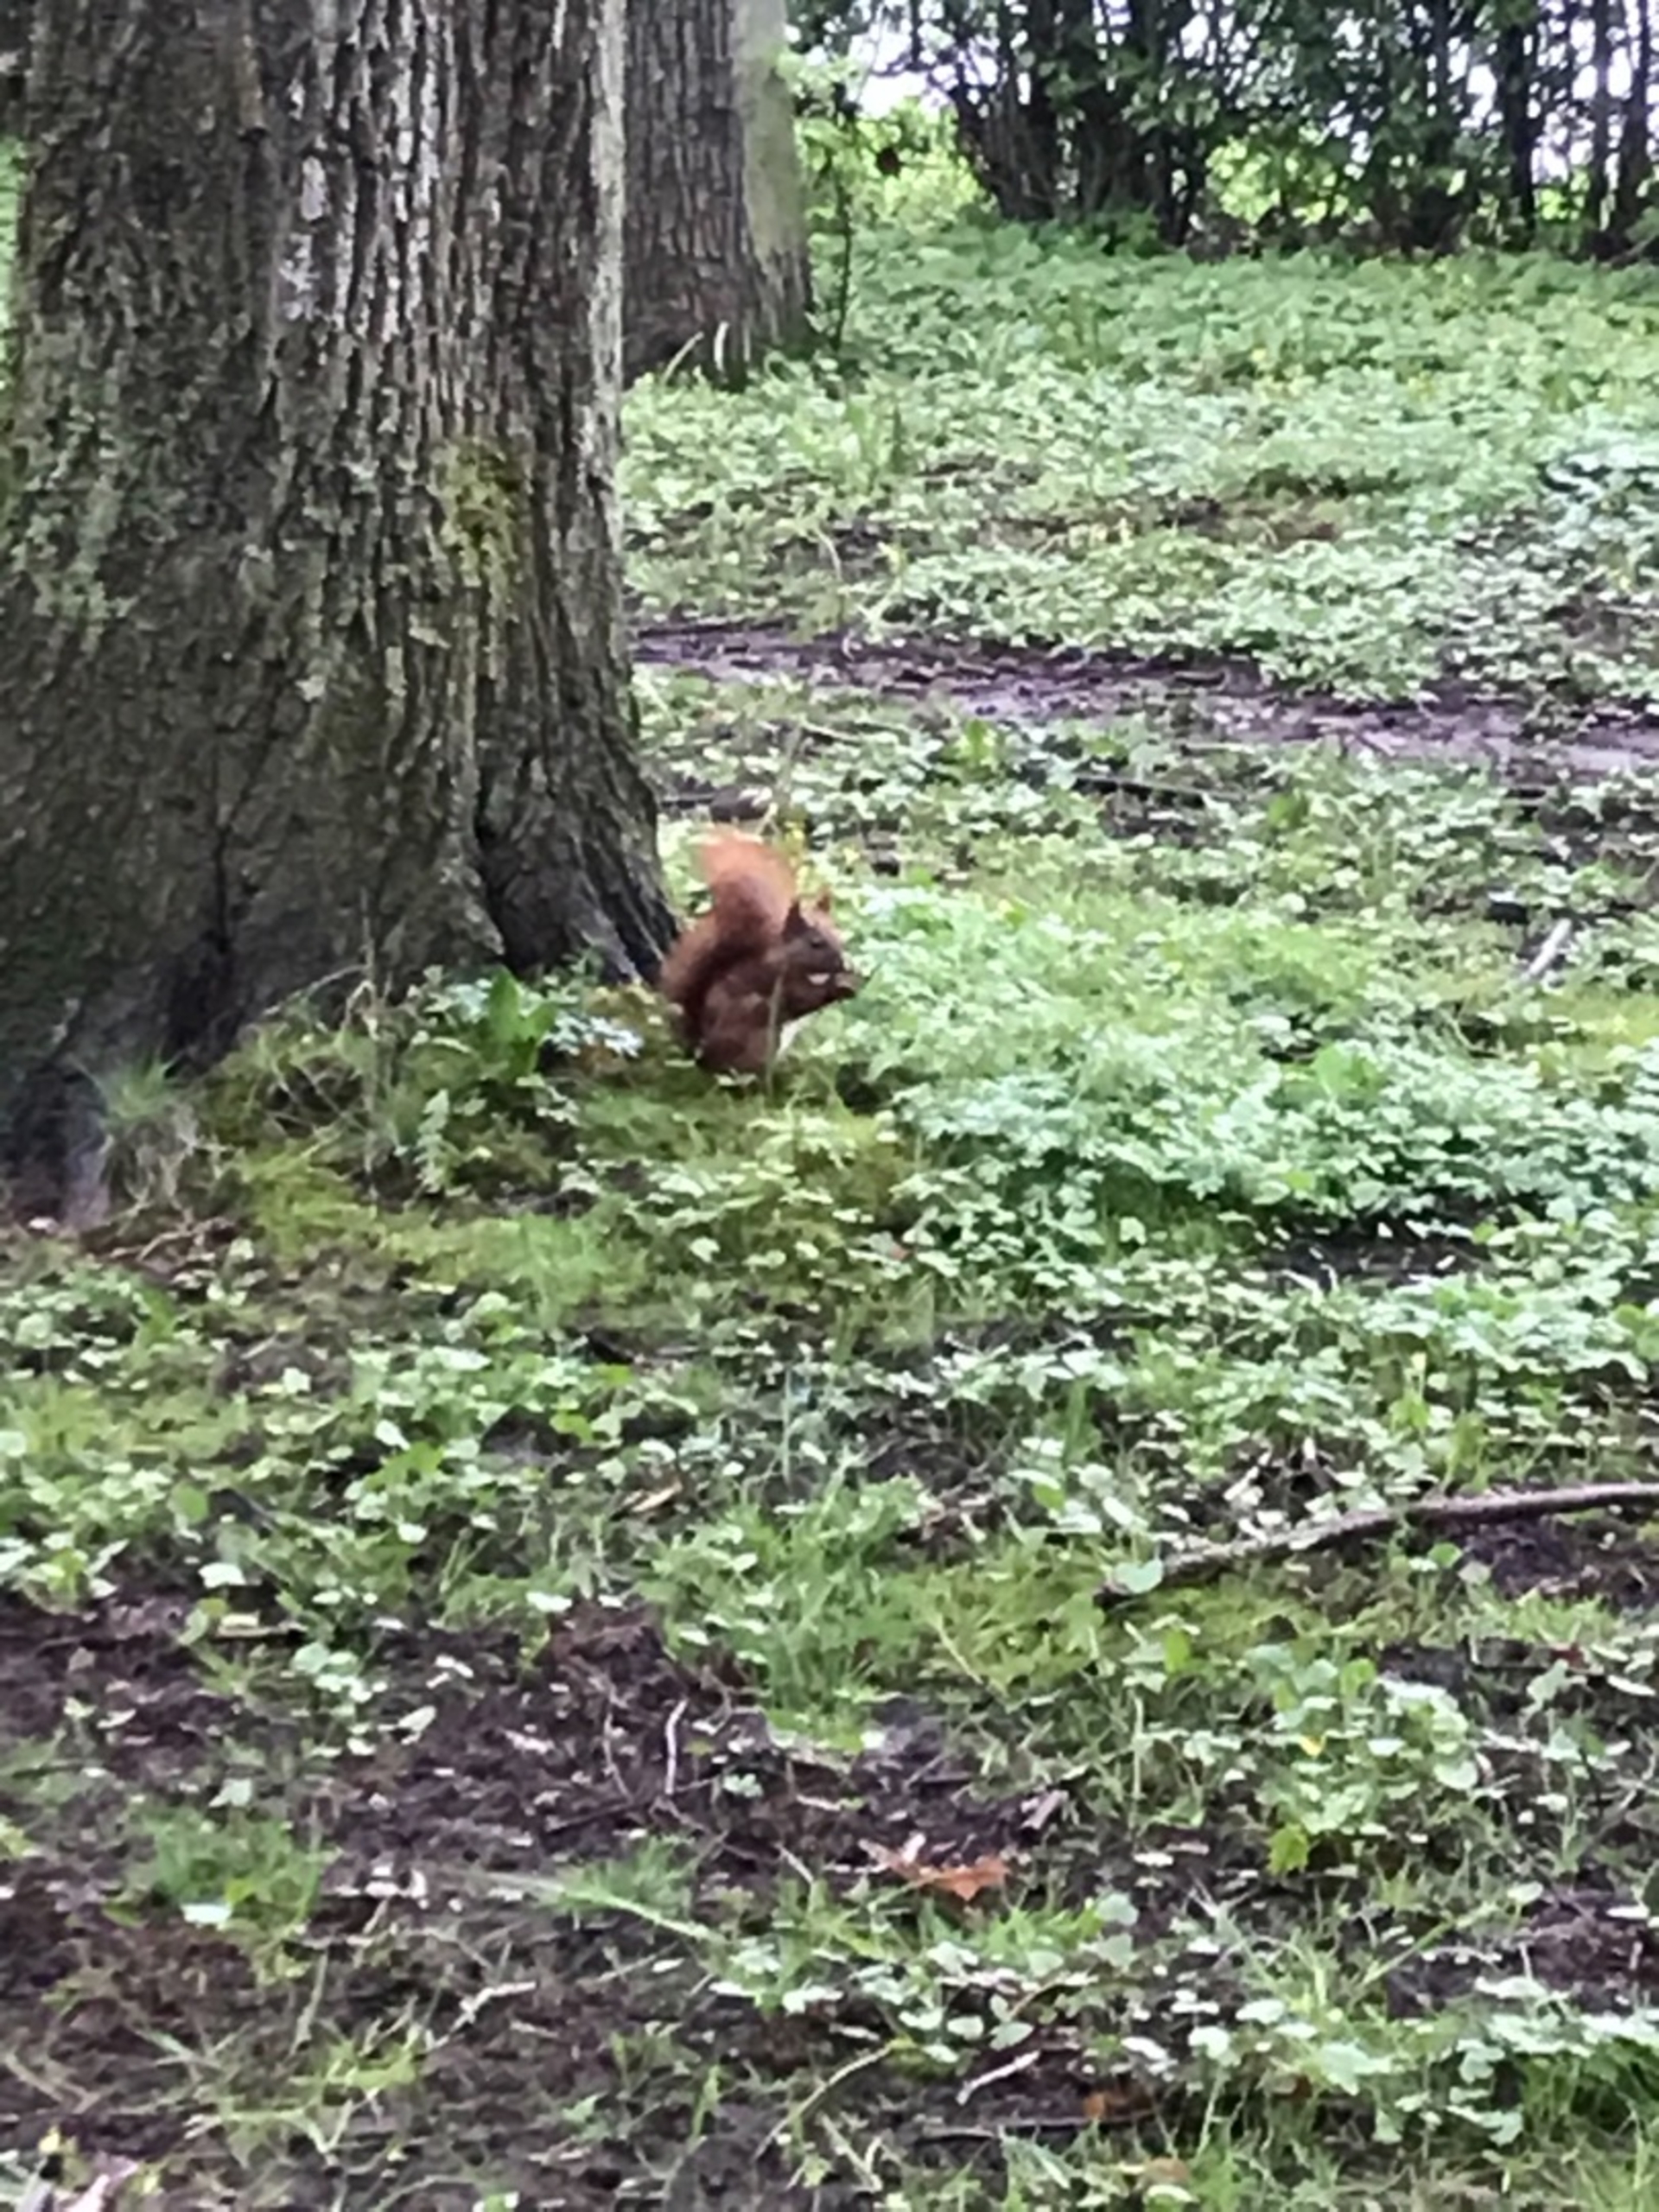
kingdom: Animalia
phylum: Chordata
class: Mammalia
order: Rodentia
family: Sciuridae
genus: Sciurus
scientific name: Sciurus vulgaris
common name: Egern
